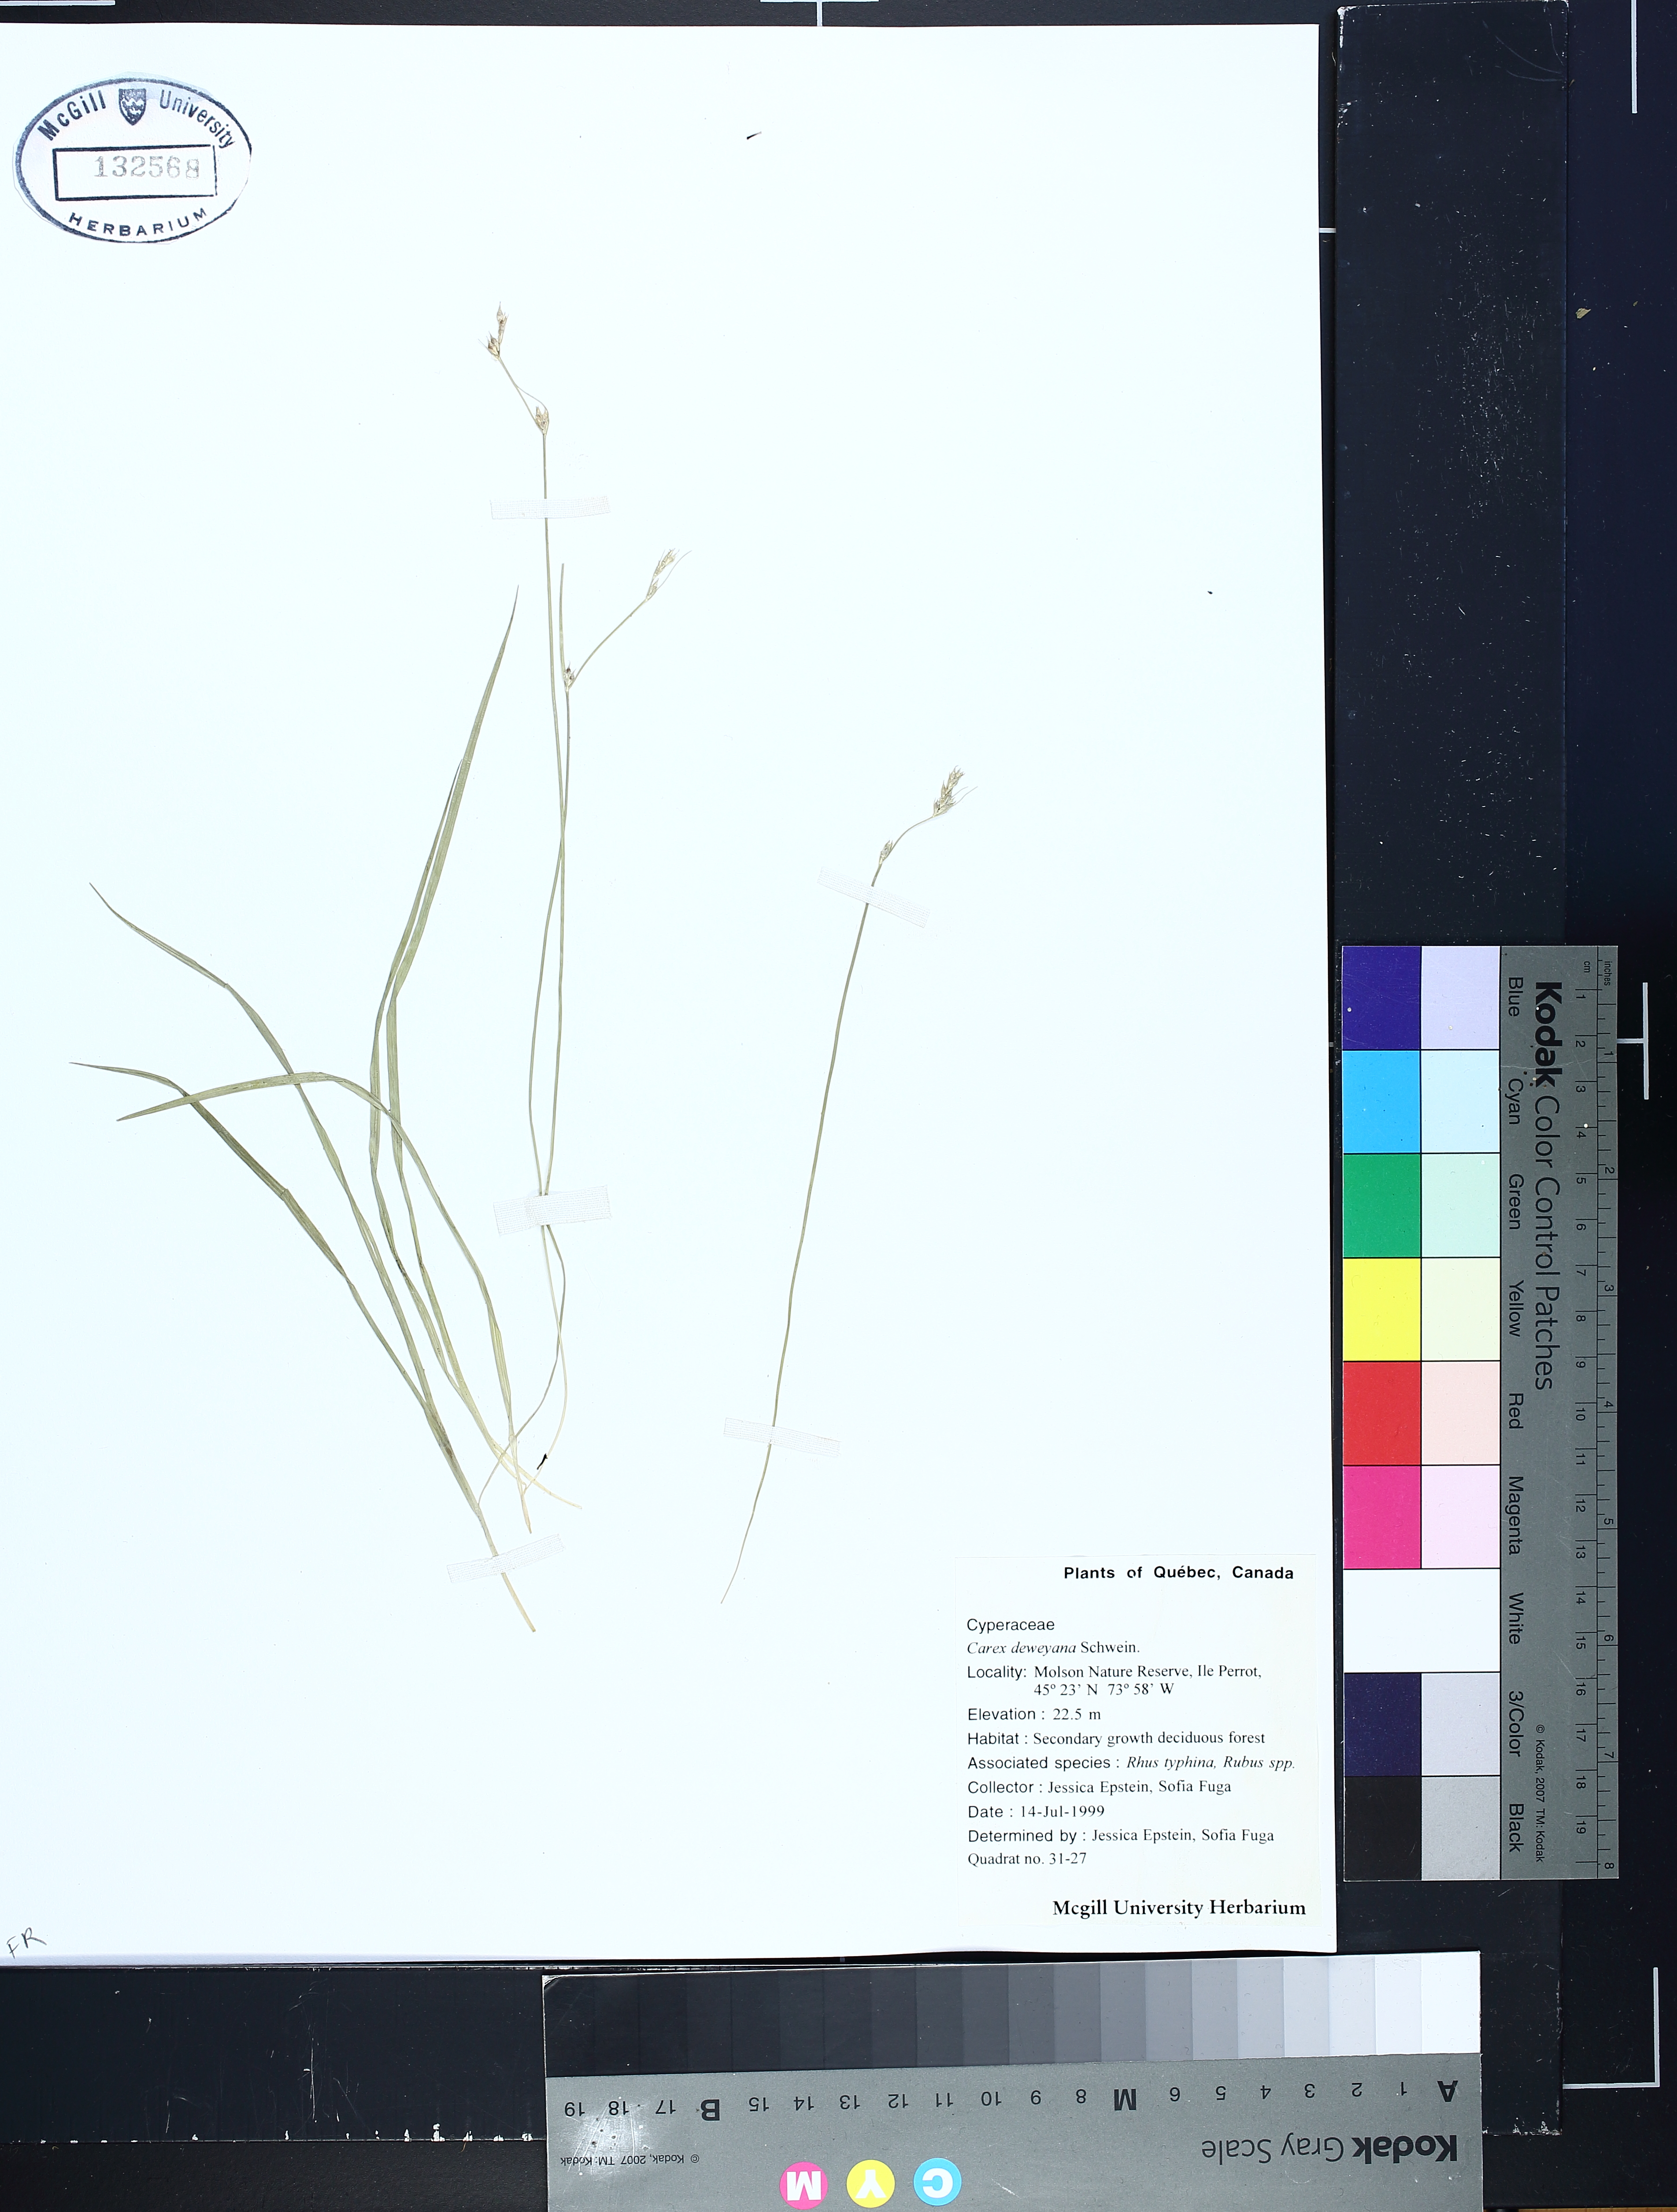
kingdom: Plantae
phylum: Tracheophyta
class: Liliopsida
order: Poales
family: Cyperaceae
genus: Carex
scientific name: Carex deweyana
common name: Dewey's sedge
